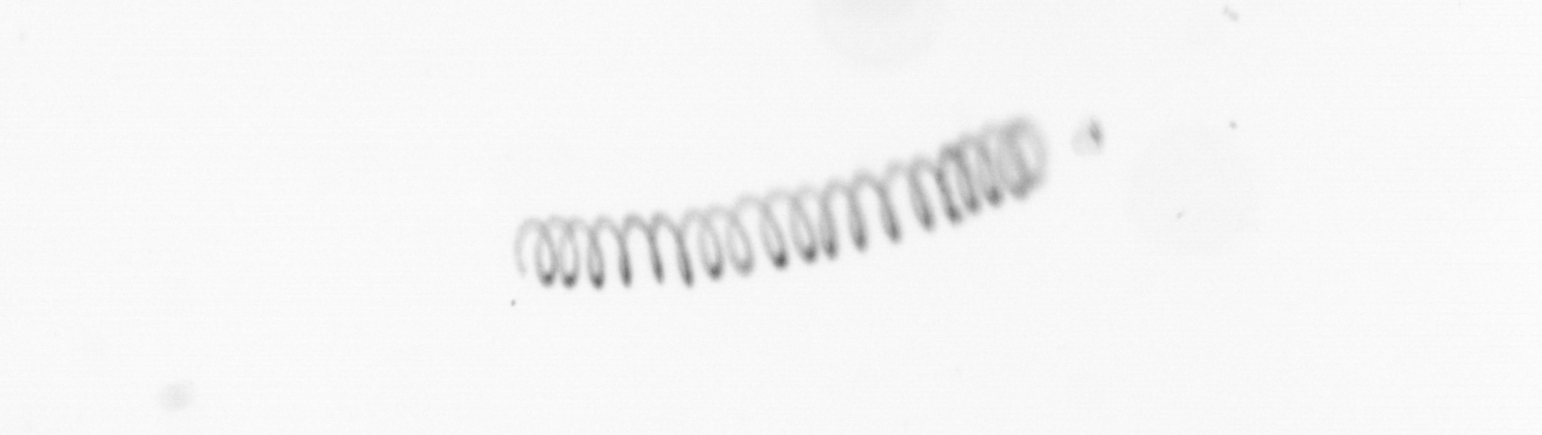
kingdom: Chromista
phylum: Ochrophyta
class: Bacillariophyceae
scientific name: Bacillariophyceae
